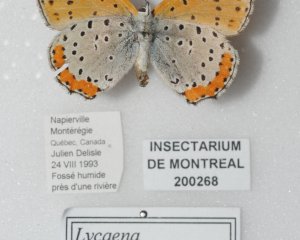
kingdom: Animalia
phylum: Arthropoda
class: Insecta
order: Lepidoptera
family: Sesiidae
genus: Sesia
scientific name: Sesia Lycaena hyllus
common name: Bronze Copper
